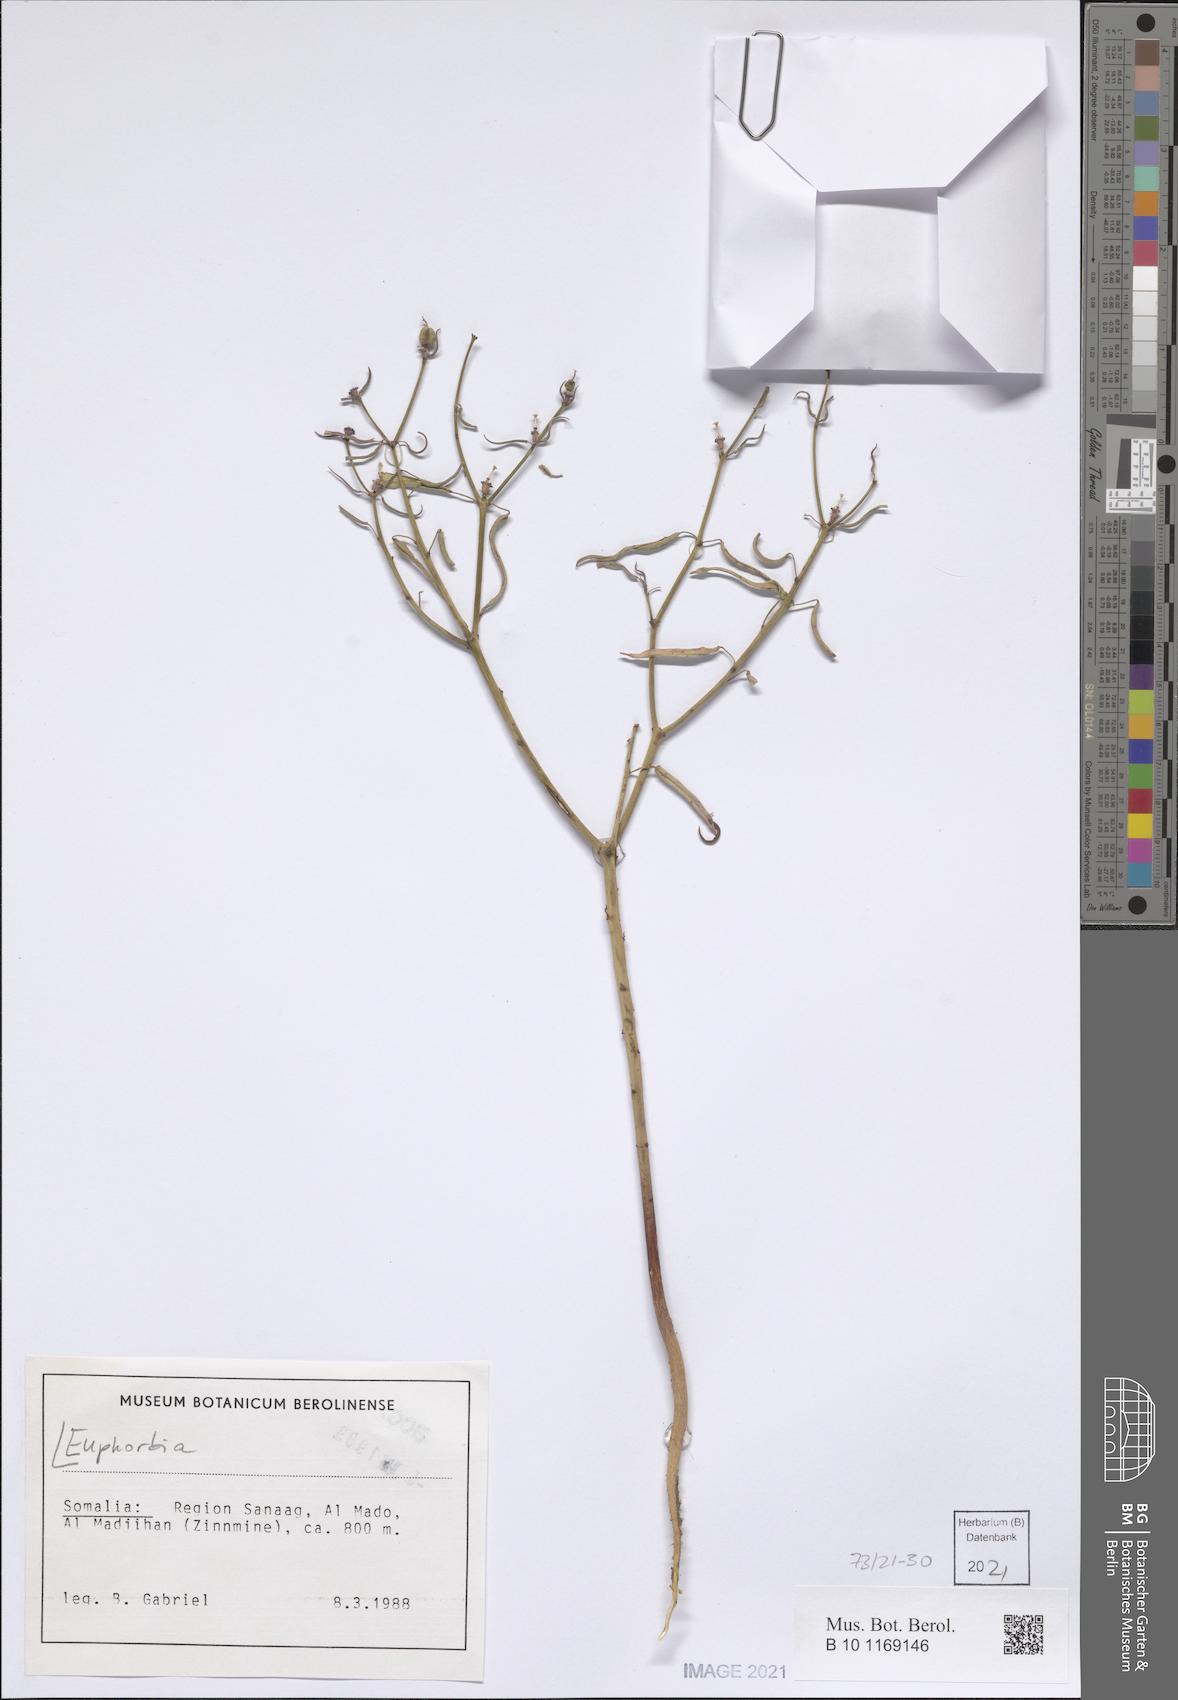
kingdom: Plantae
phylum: Tracheophyta
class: Magnoliopsida
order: Malpighiales
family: Euphorbiaceae
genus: Euphorbia
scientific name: Euphorbia
